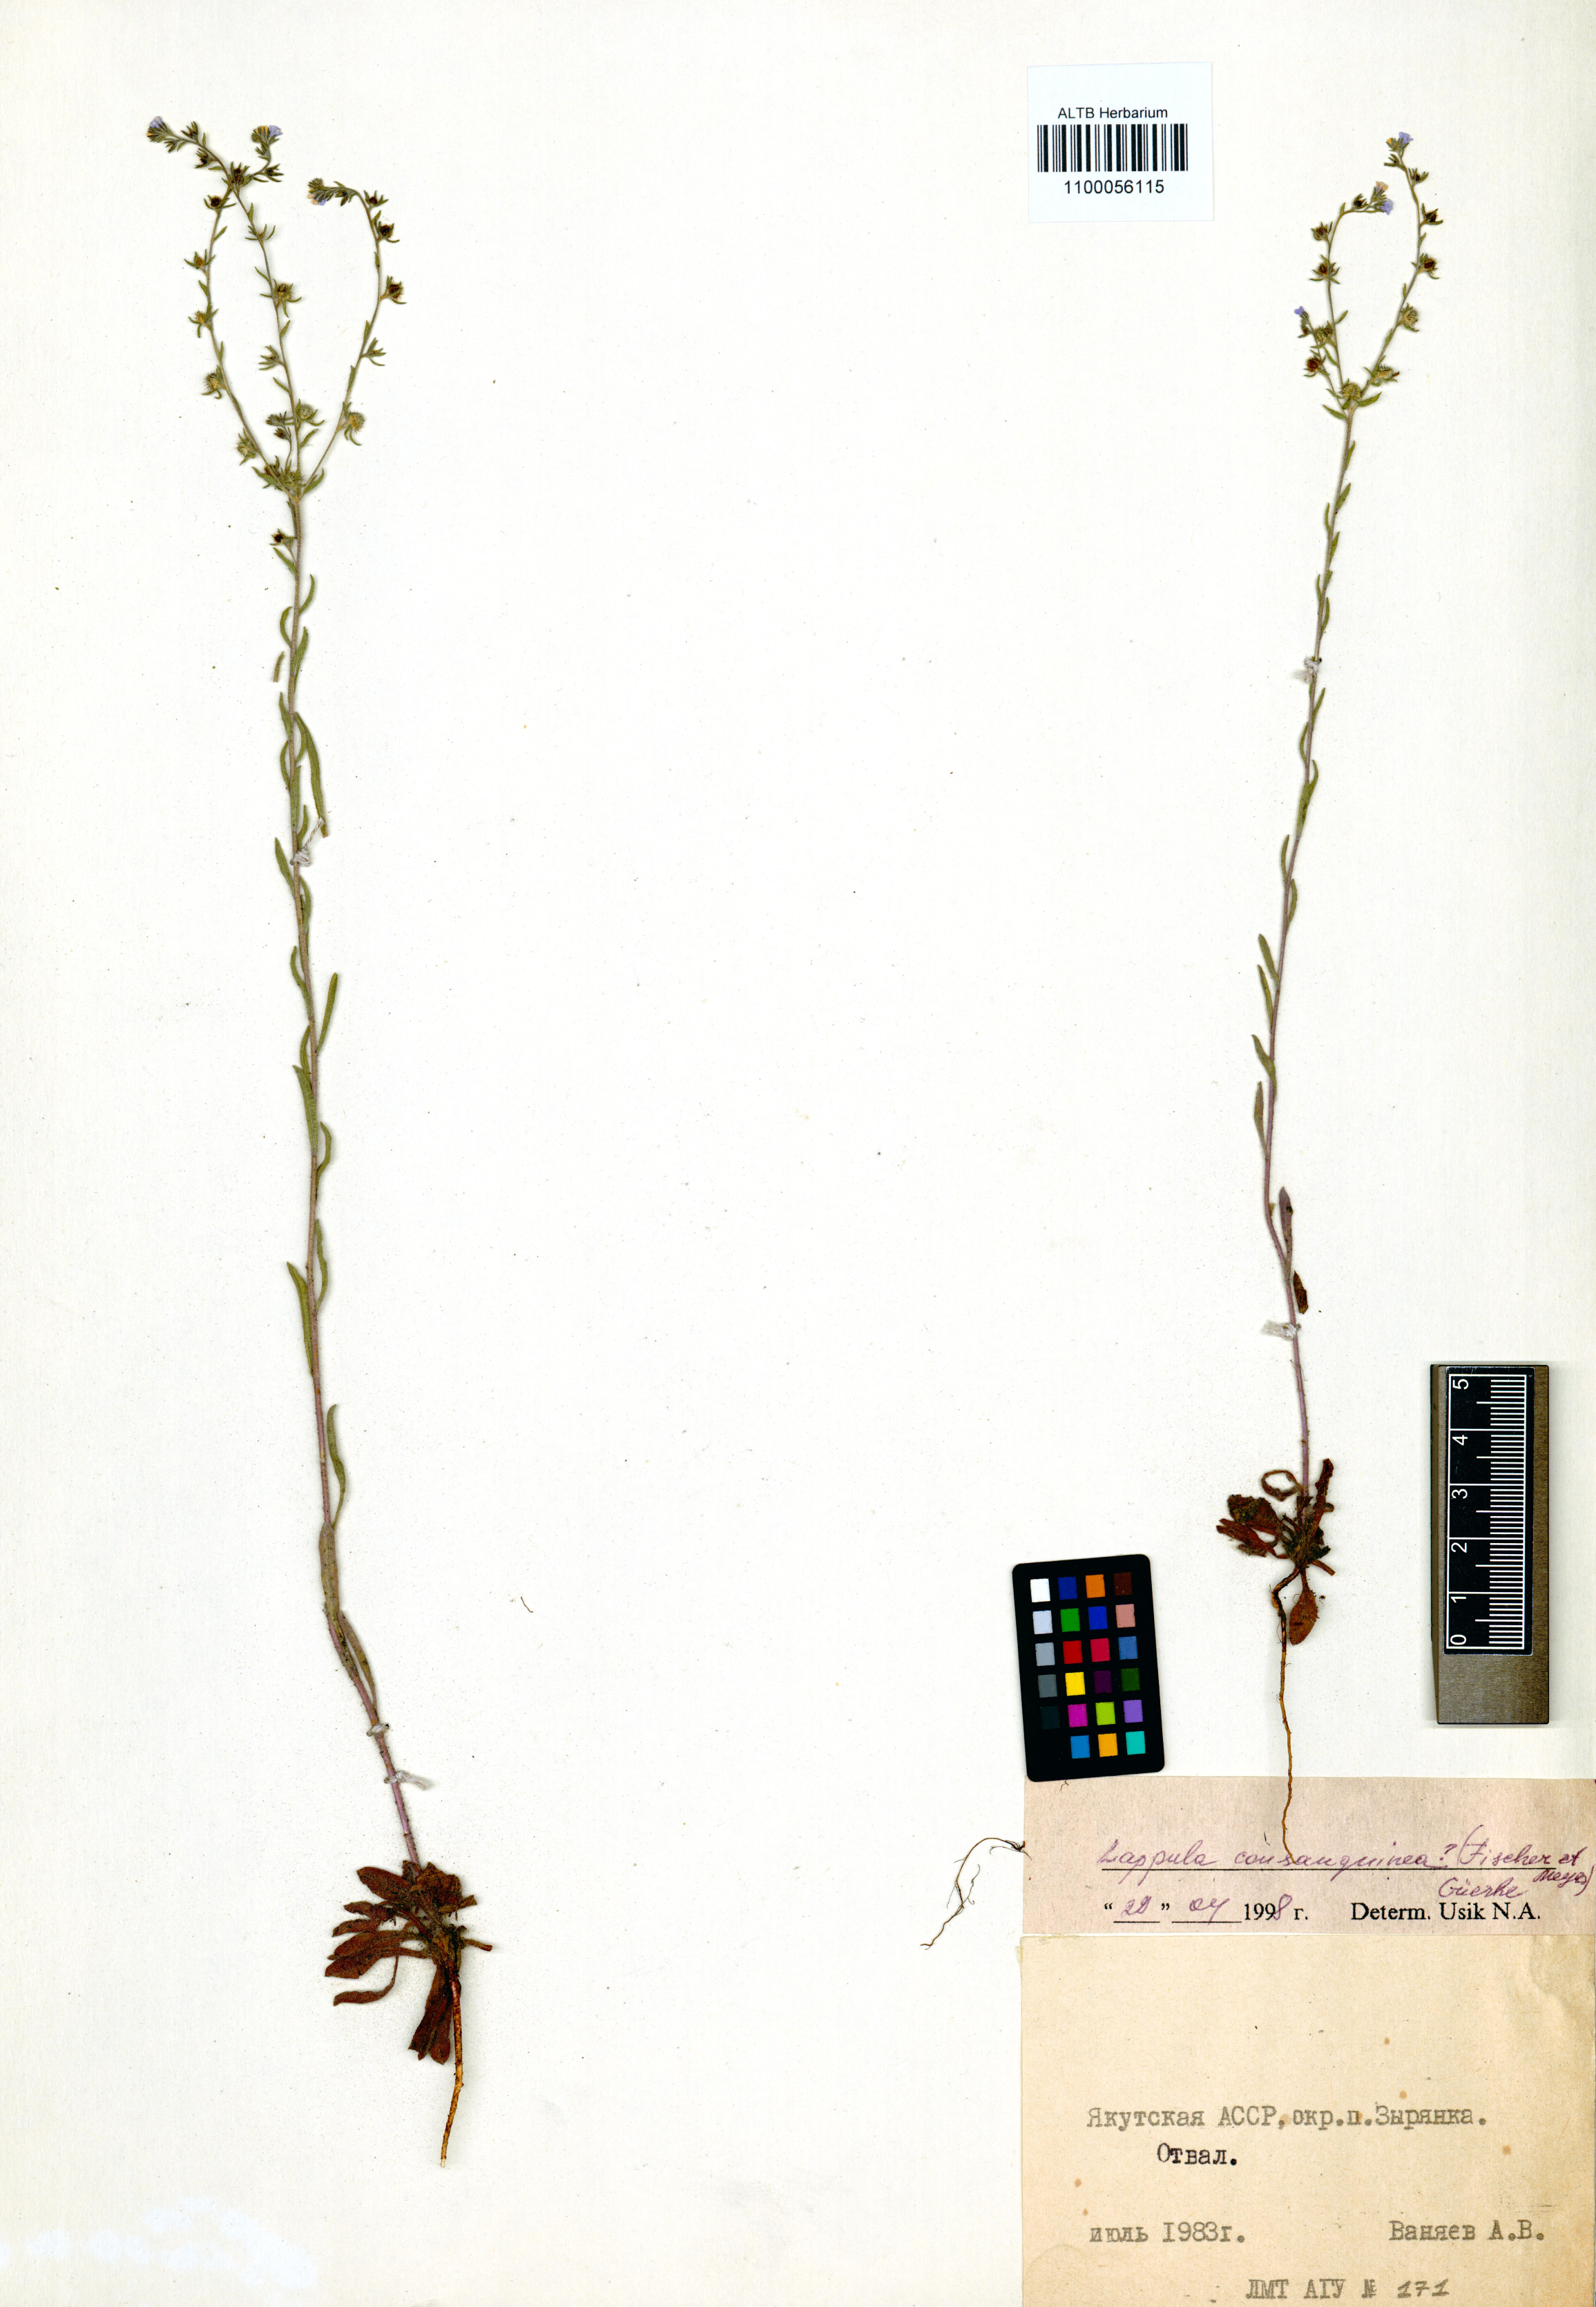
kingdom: Plantae
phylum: Tracheophyta
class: Magnoliopsida
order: Boraginales
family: Boraginaceae
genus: Lappula
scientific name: Lappula squarrosa
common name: European stickseed
